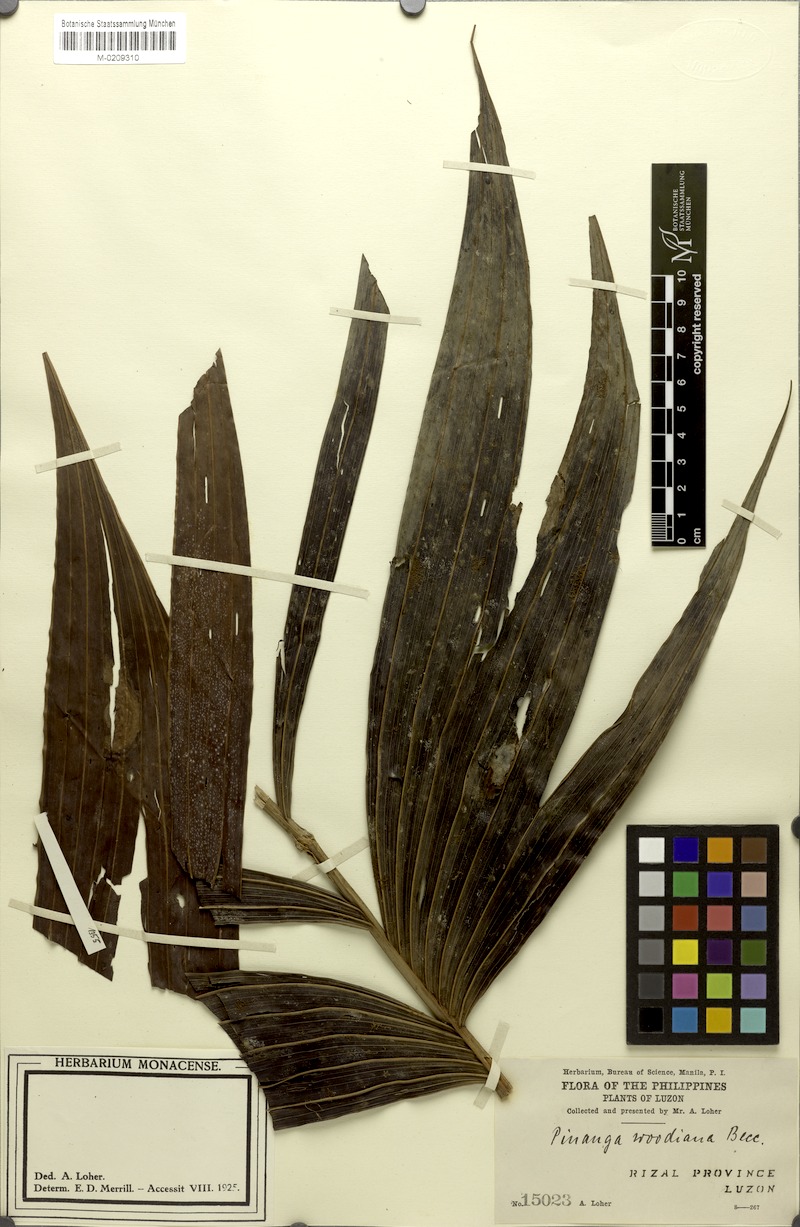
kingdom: Plantae
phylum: Tracheophyta
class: Liliopsida
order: Arecales
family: Arecaceae
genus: Pinanga
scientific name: Pinanga woodiana
